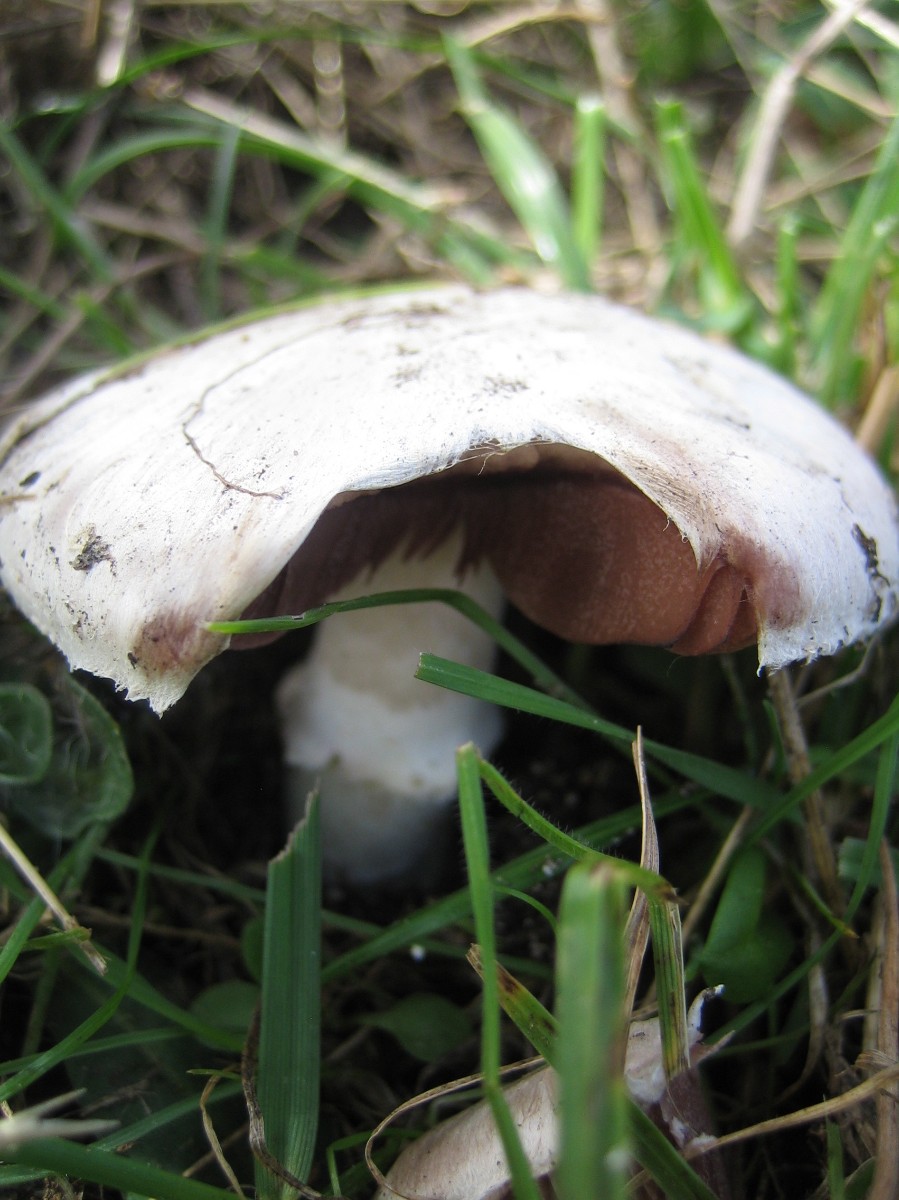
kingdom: Fungi
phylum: Basidiomycota
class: Agaricomycetes
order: Agaricales
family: Agaricaceae
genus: Agaricus
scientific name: Agaricus campestris
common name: mark-champignon
